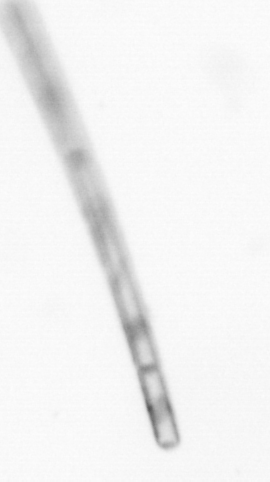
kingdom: Chromista
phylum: Ochrophyta
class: Bacillariophyceae
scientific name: Bacillariophyceae
